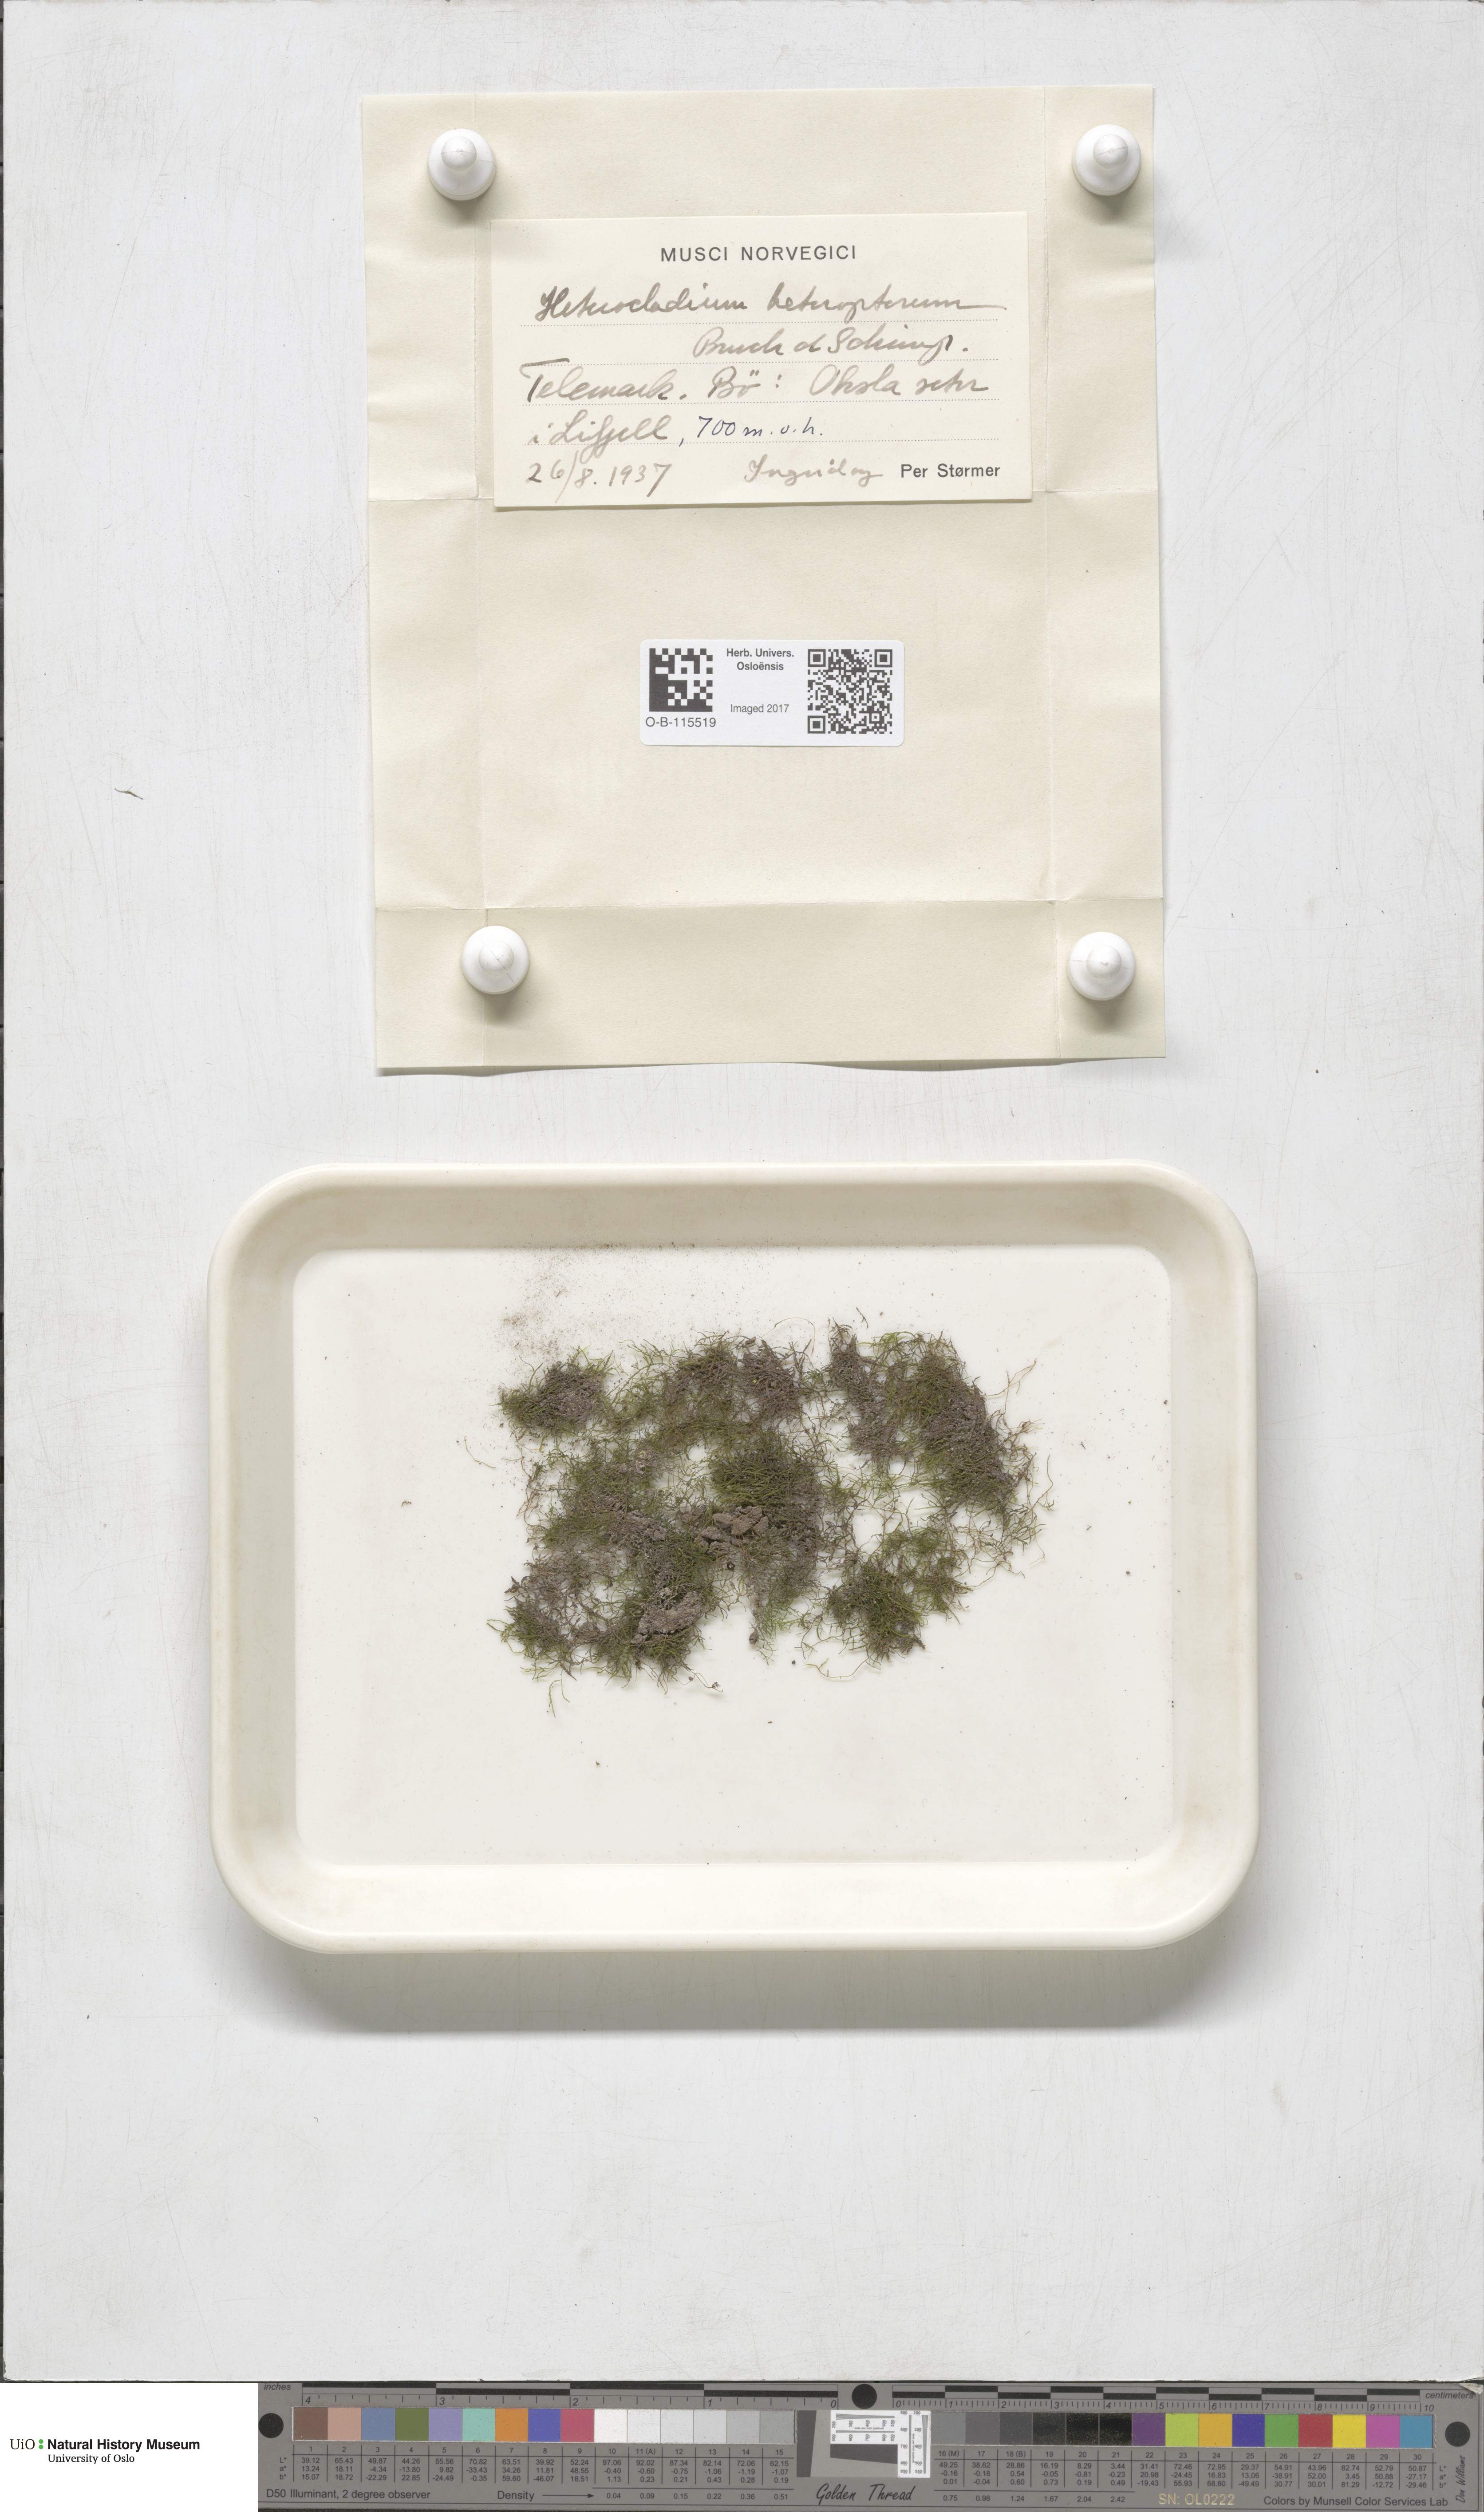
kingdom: Plantae
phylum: Bryophyta
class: Bryopsida
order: Hypnales
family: Lembophyllaceae
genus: Heterocladium
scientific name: Heterocladium heteropterum
